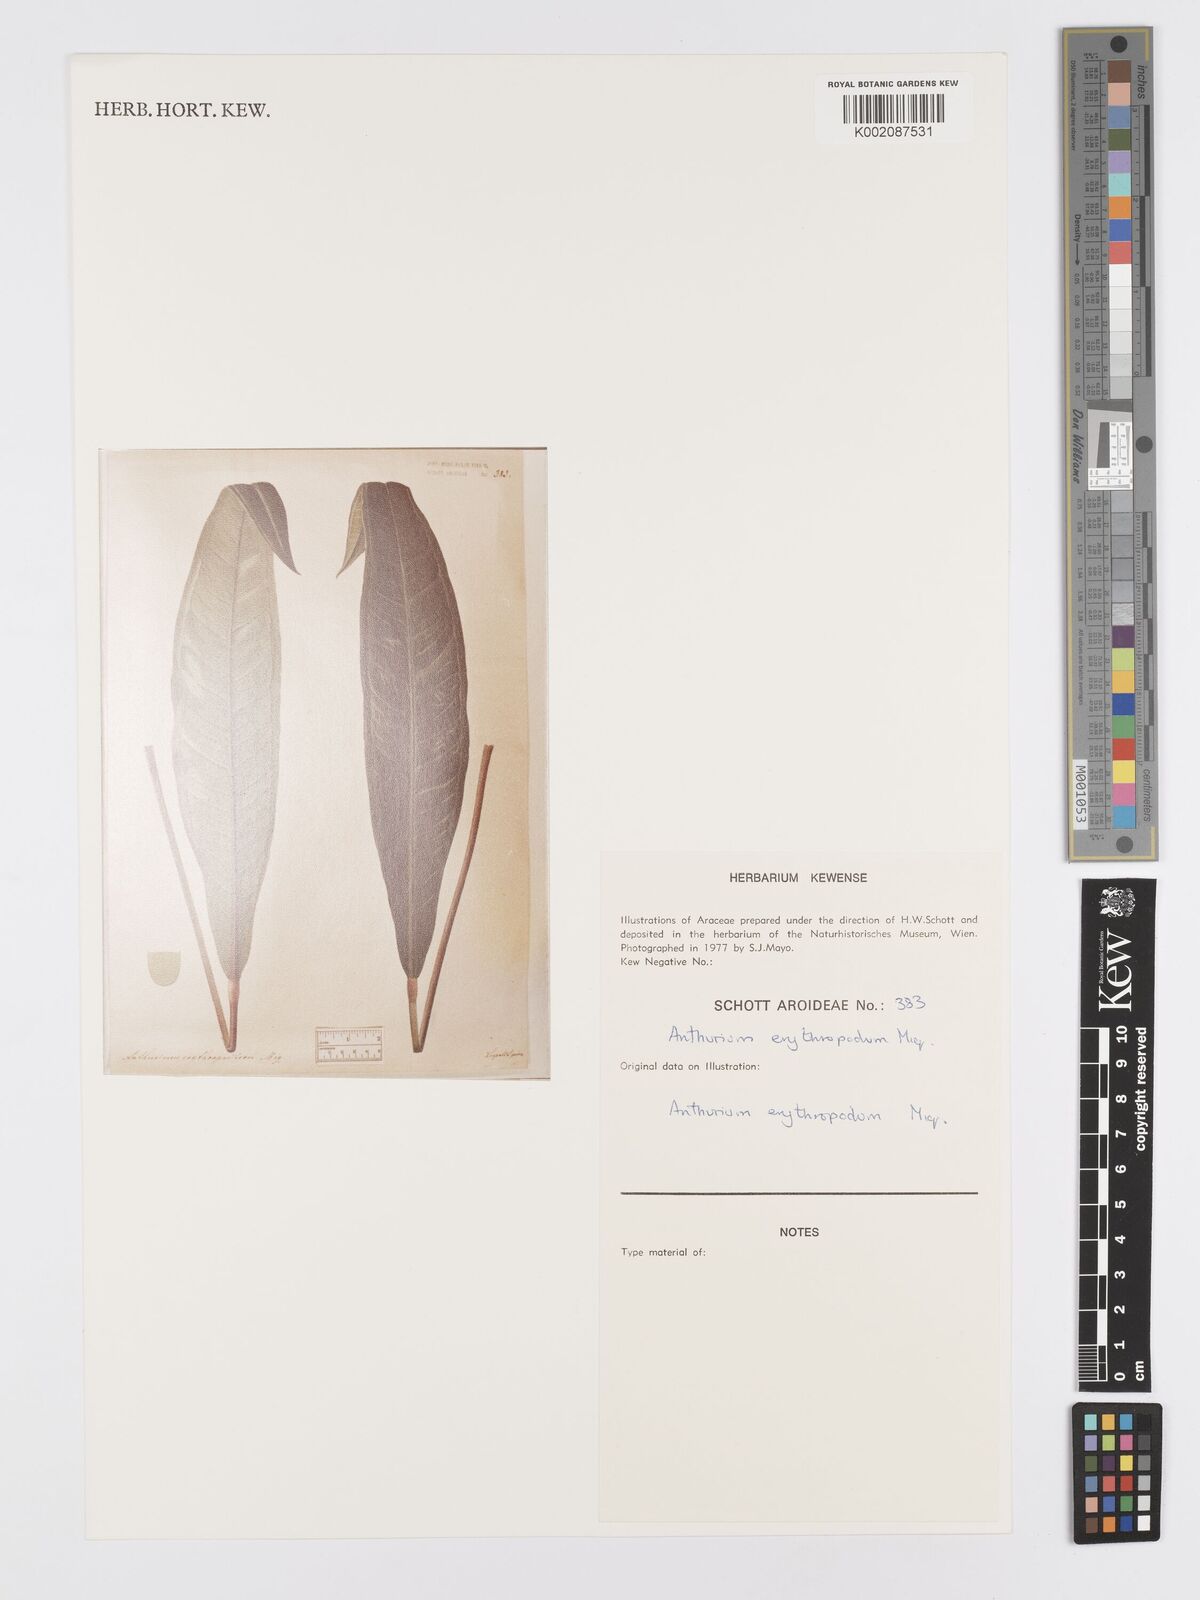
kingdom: Plantae
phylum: Tracheophyta
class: Liliopsida
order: Alismatales
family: Araceae
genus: Anthurium
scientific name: Anthurium intermedium
